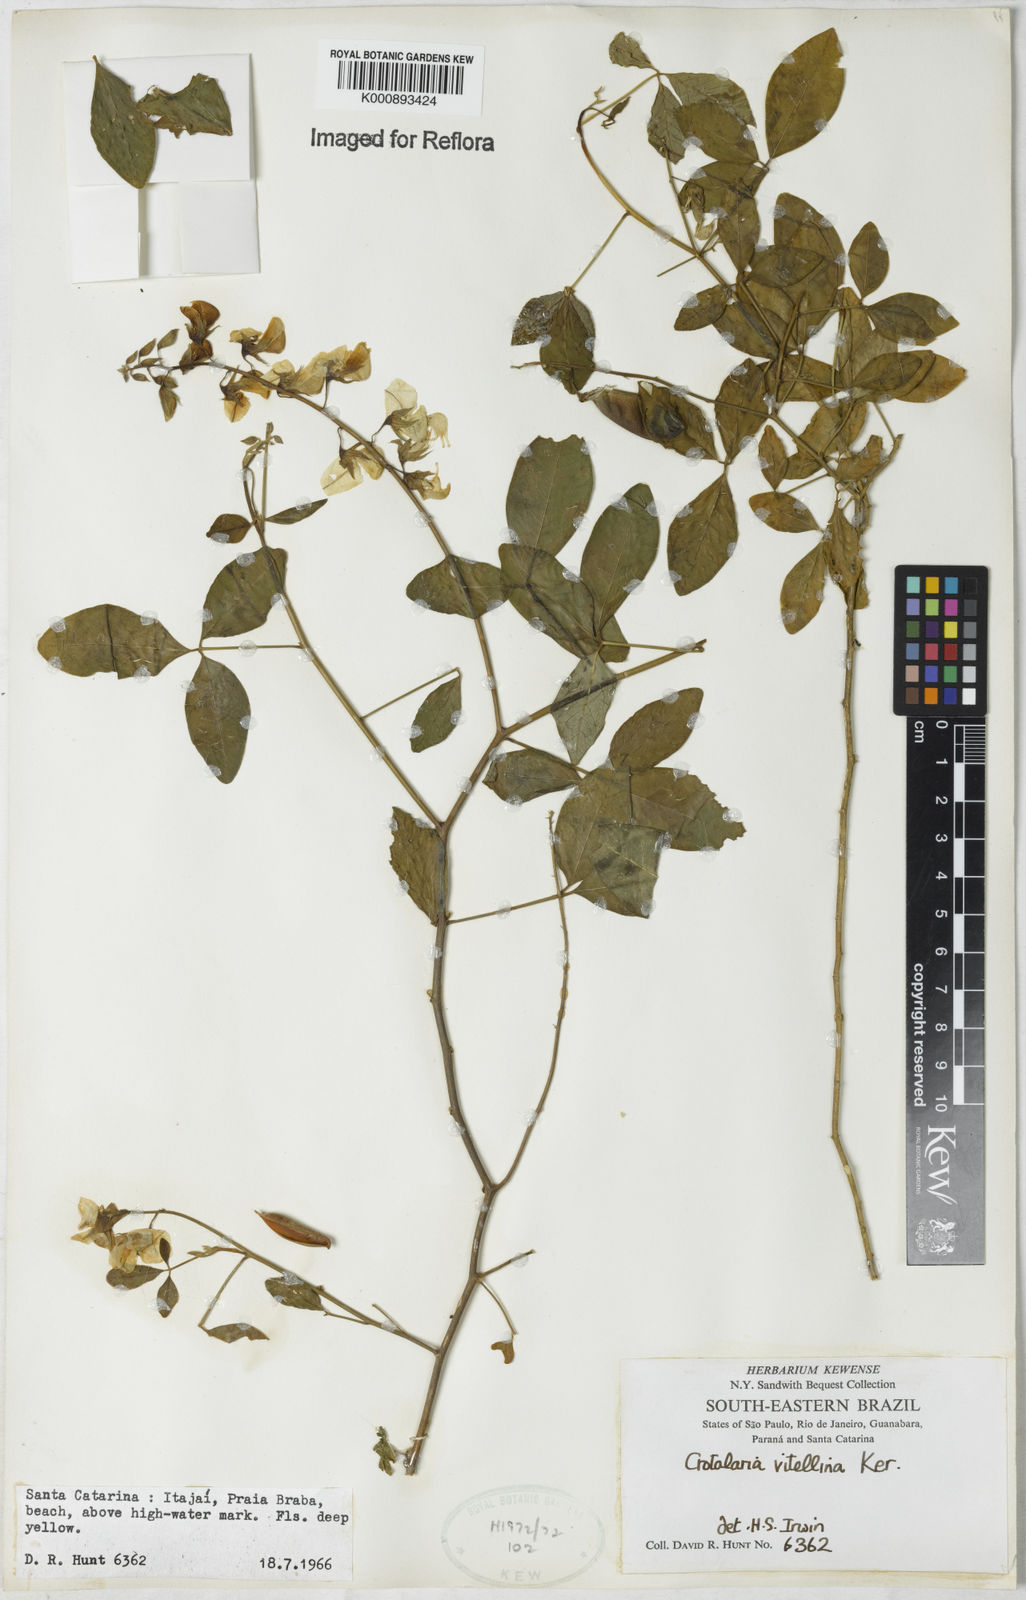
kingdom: Plantae
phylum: Tracheophyta
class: Magnoliopsida
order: Fabales
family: Fabaceae
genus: Crotalaria
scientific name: Crotalaria vitellina
